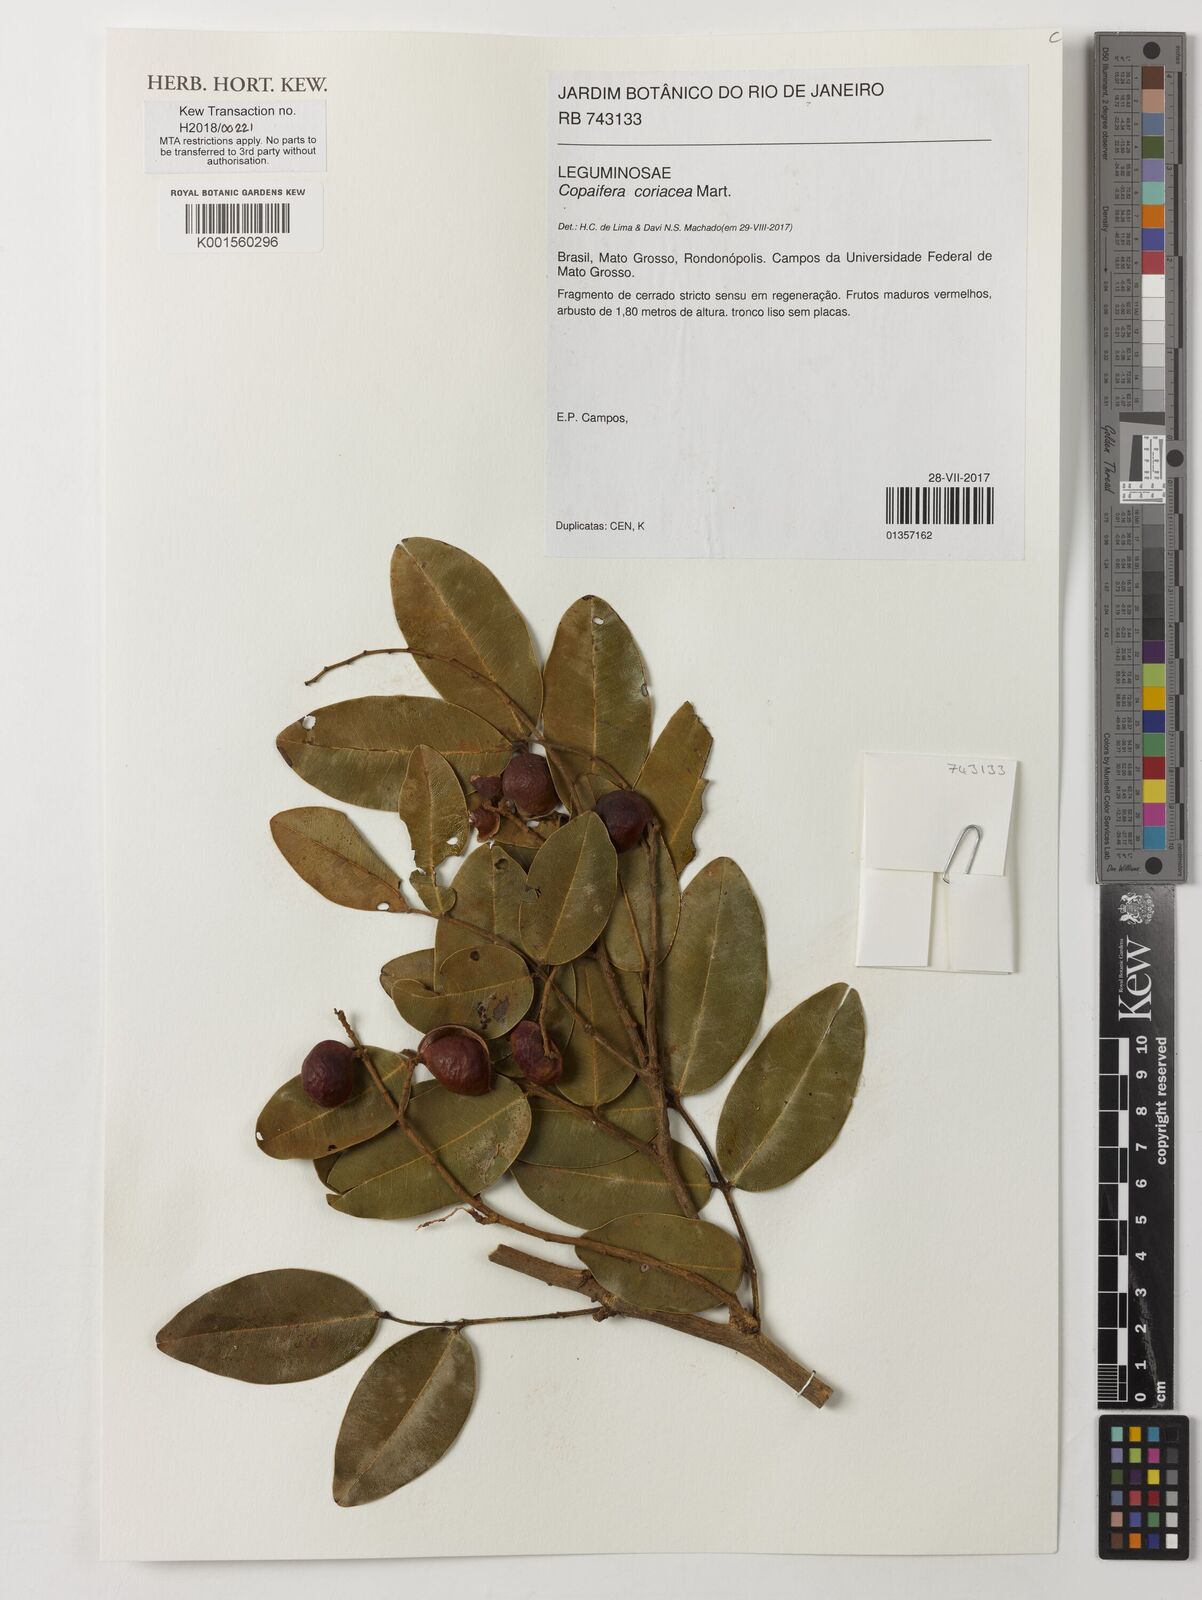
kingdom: Plantae
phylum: Tracheophyta
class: Magnoliopsida
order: Fabales
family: Fabaceae
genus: Copaifera
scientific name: Copaifera coriacea
